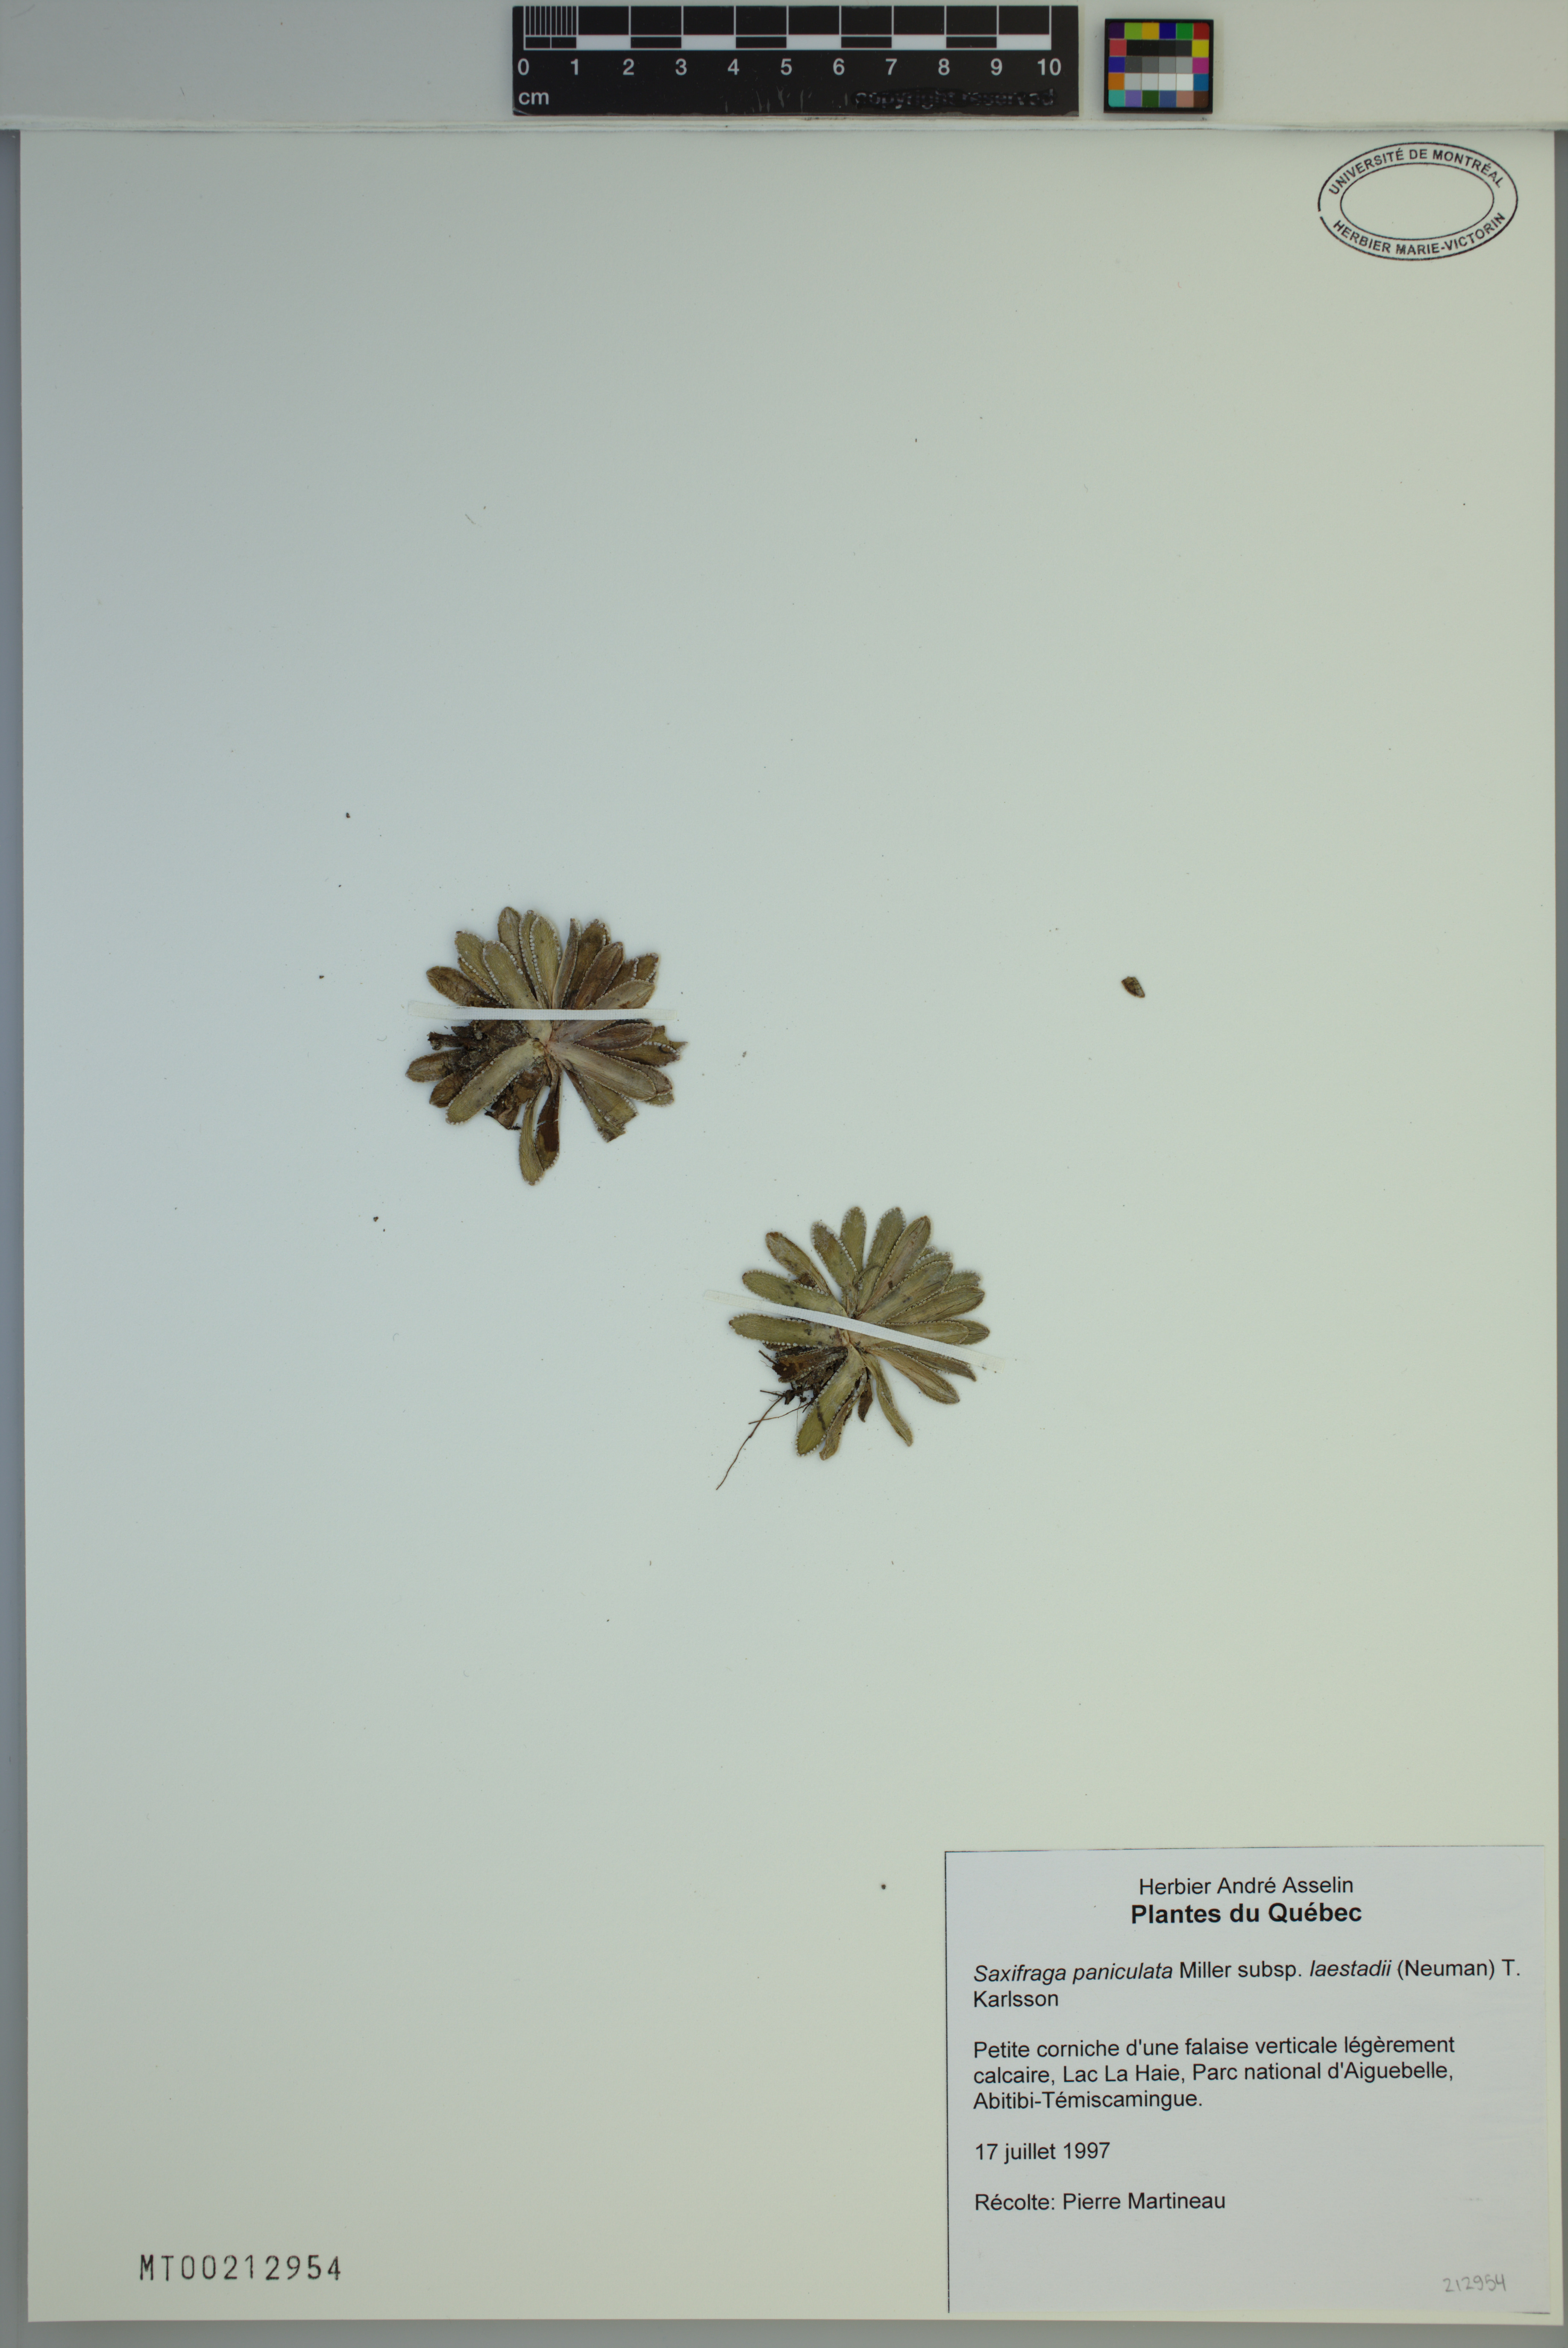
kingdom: Plantae
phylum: Tracheophyta
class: Magnoliopsida
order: Saxifragales
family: Saxifragaceae
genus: Saxifraga
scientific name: Saxifraga paniculata
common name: Livelong saxifrage
